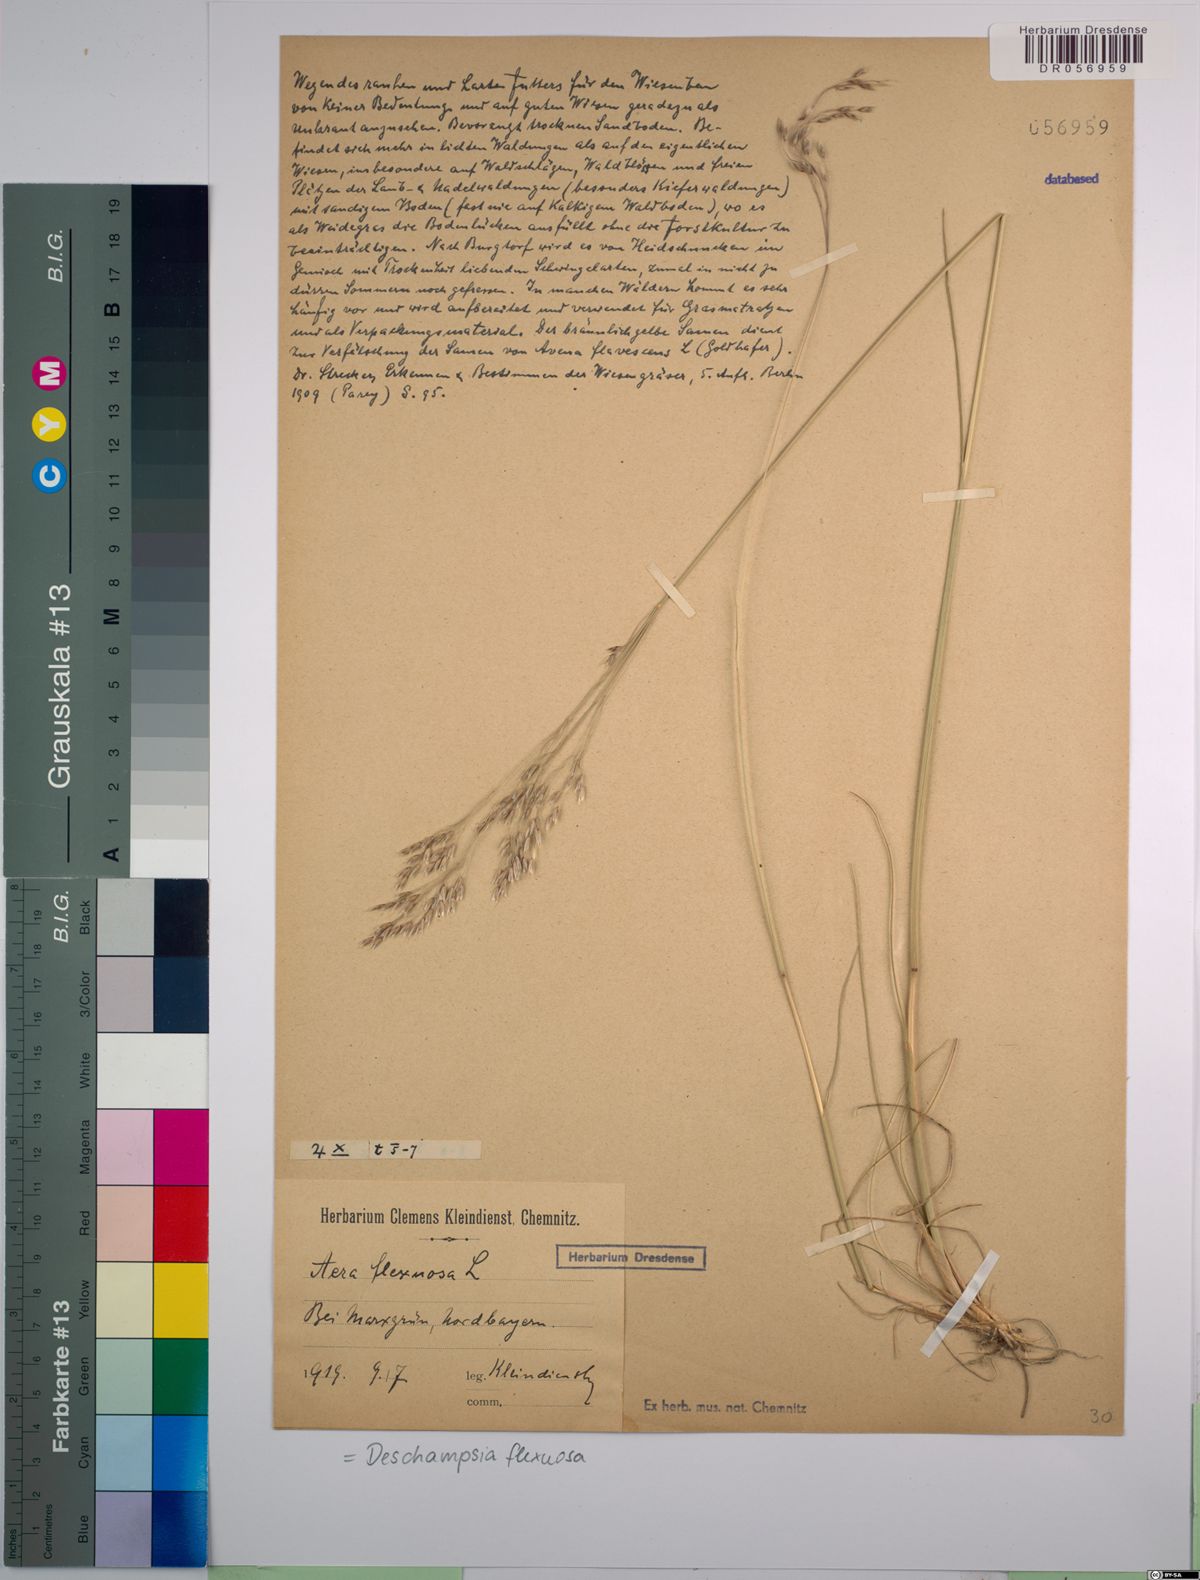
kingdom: Plantae
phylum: Tracheophyta
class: Liliopsida
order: Poales
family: Poaceae
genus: Avenella
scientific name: Avenella flexuosa
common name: Wavy hairgrass
